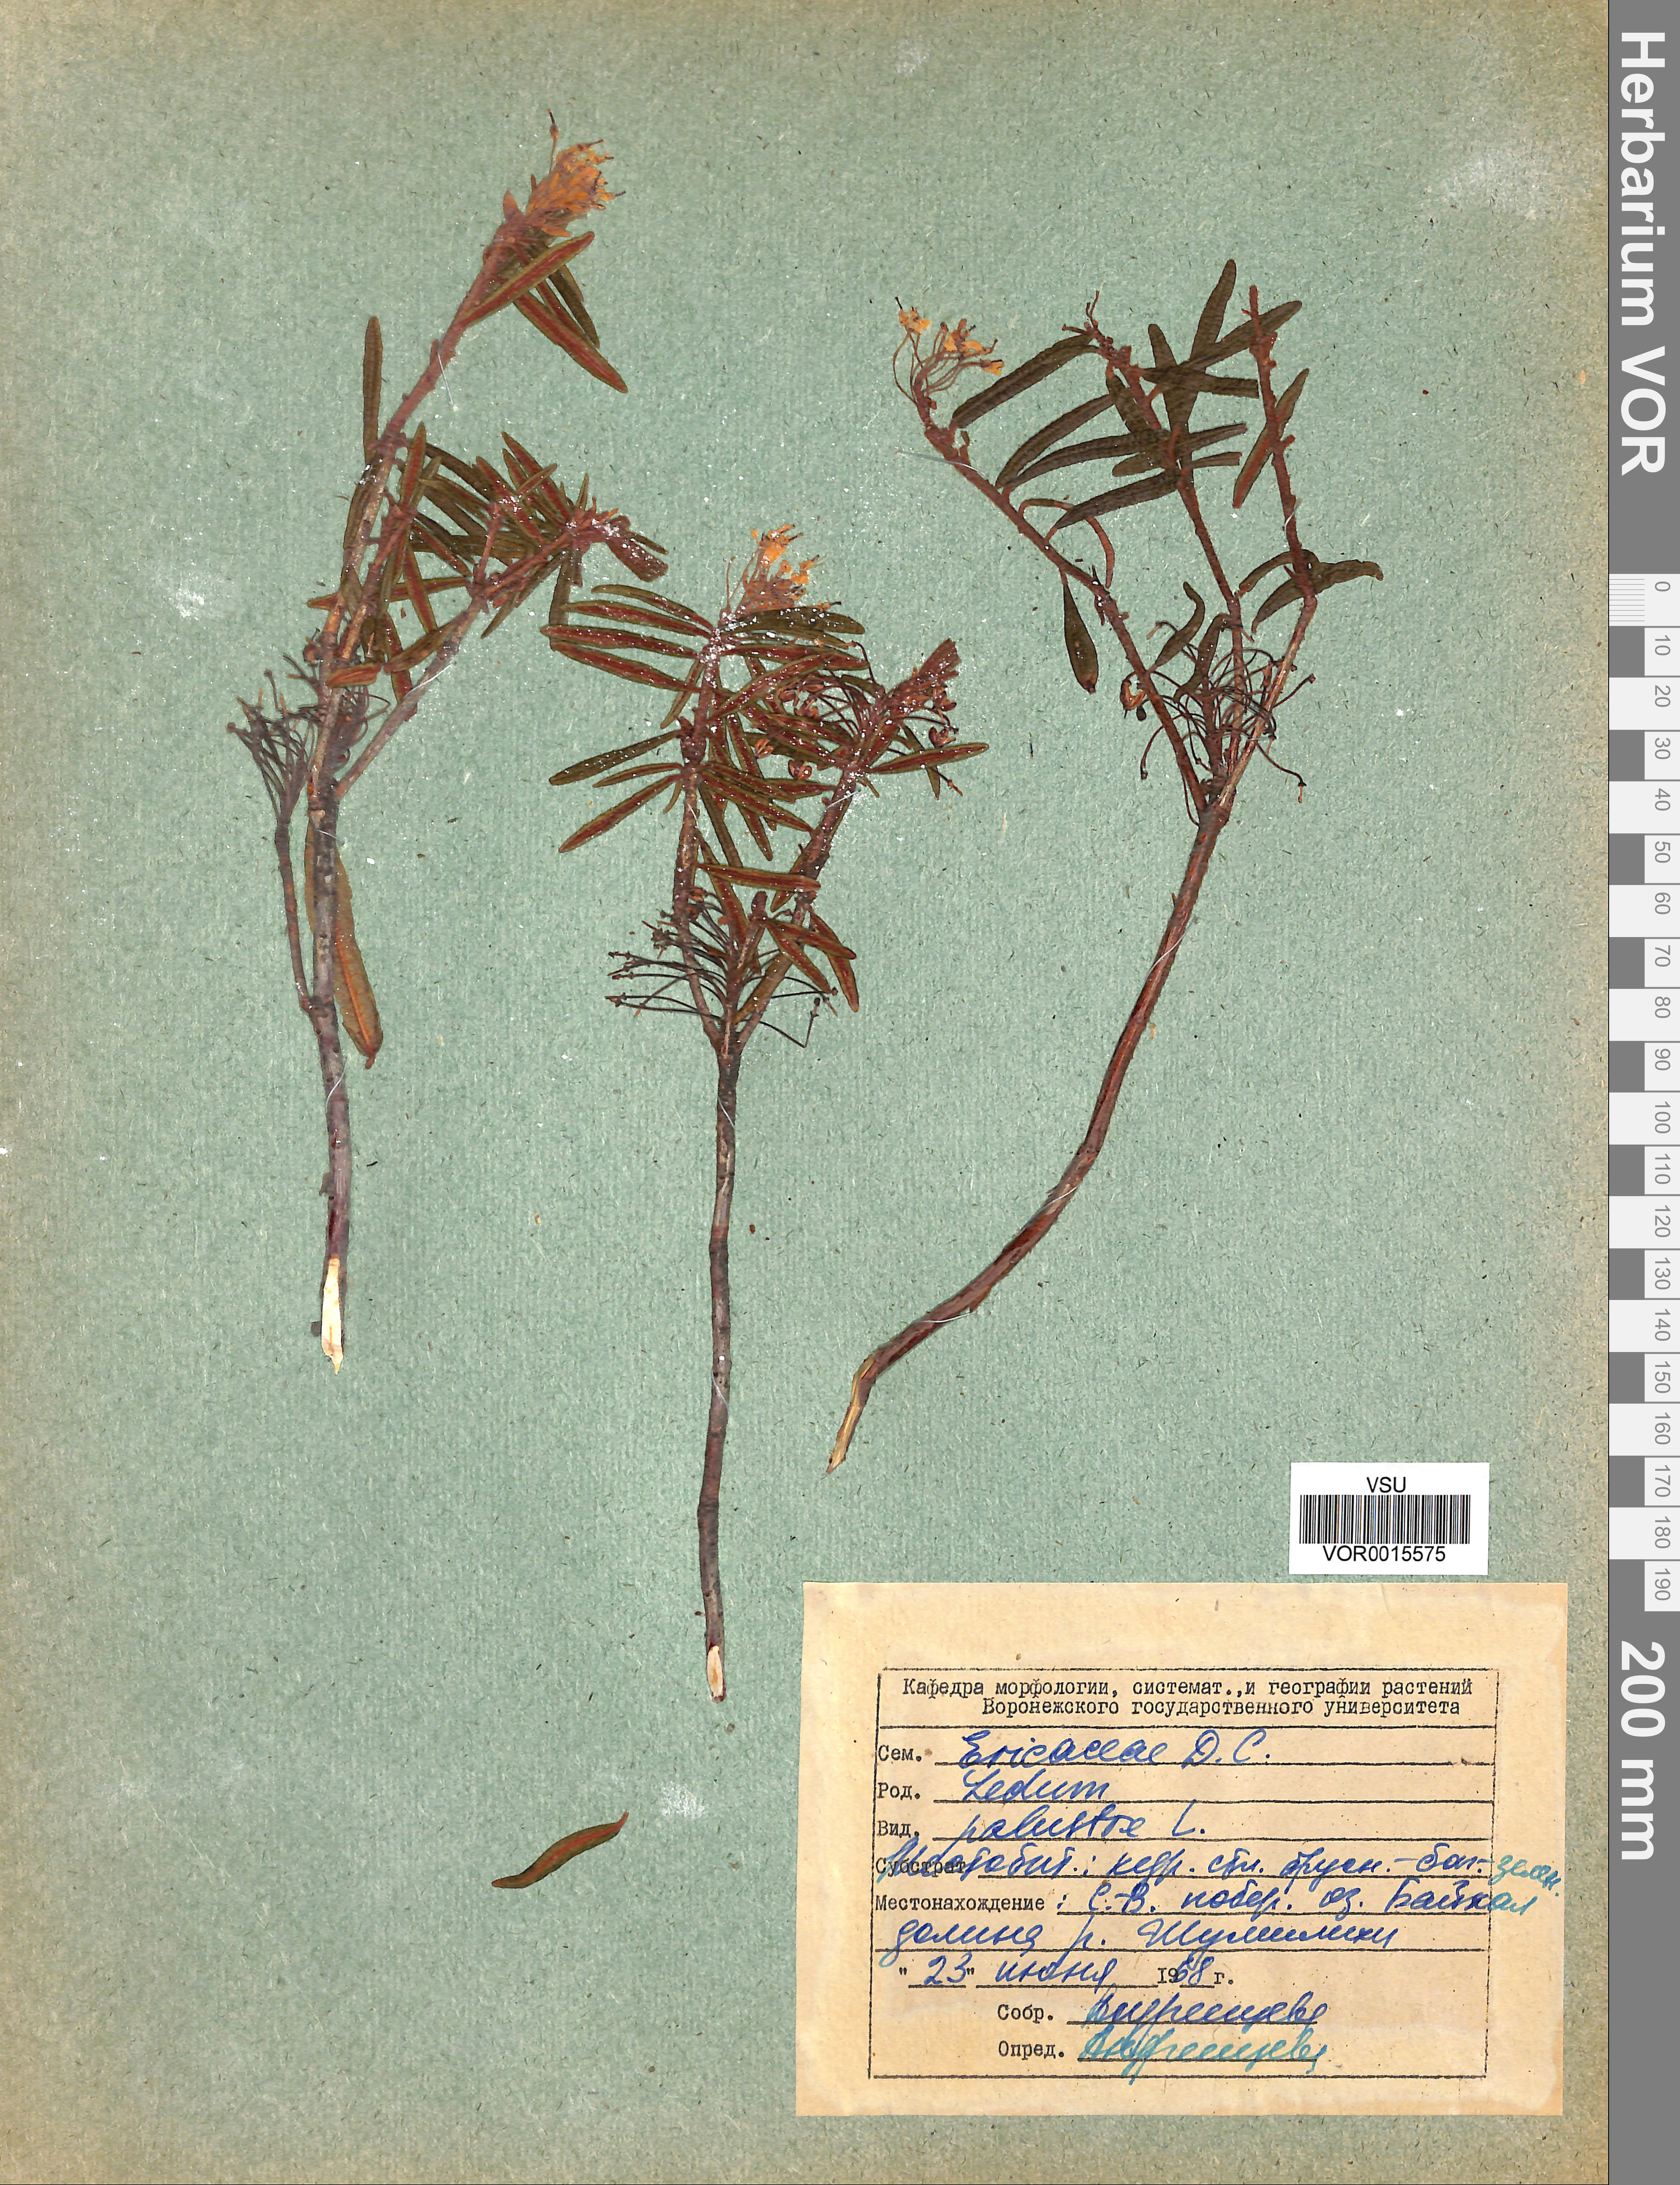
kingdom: Plantae
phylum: Tracheophyta
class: Magnoliopsida
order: Ericales
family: Ericaceae
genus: Rhododendron
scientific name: Rhododendron tomentosum
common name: Marsh labrador tea
